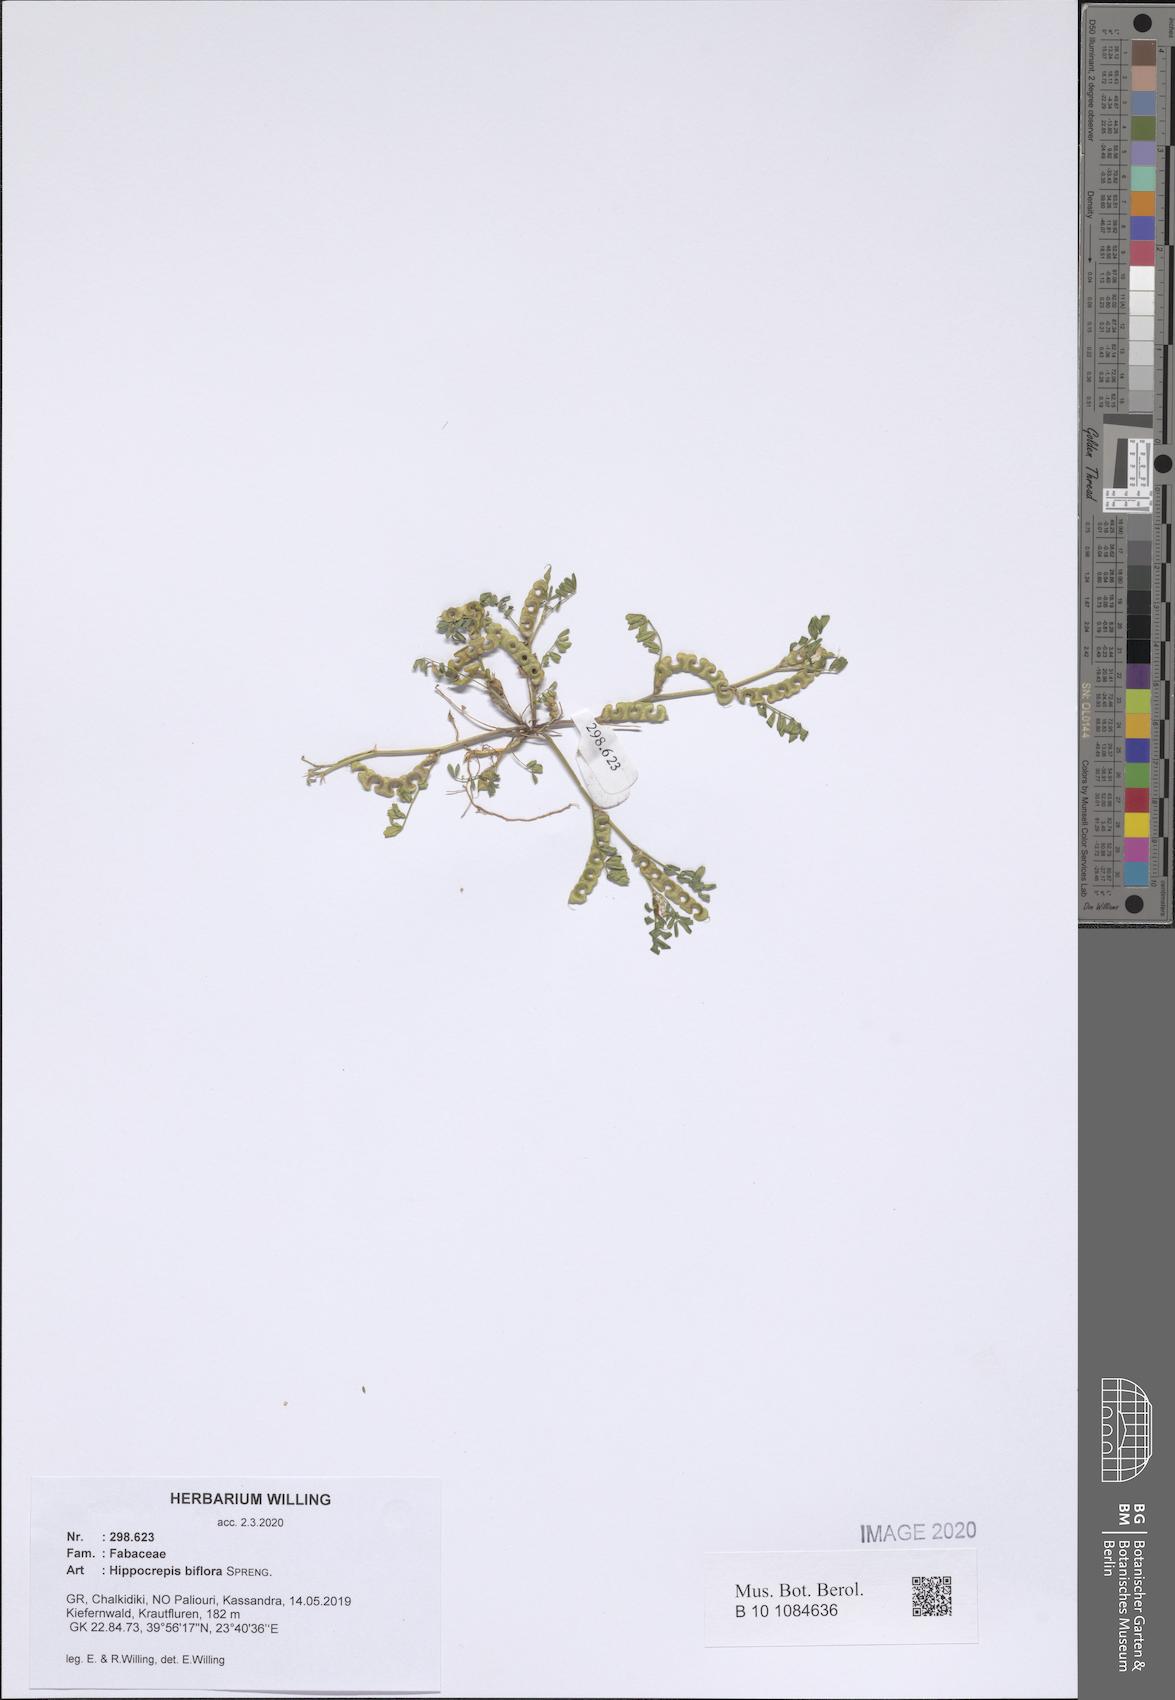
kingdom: Plantae
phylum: Tracheophyta
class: Magnoliopsida
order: Fabales
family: Fabaceae
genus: Hippocrepis
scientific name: Hippocrepis biflora
